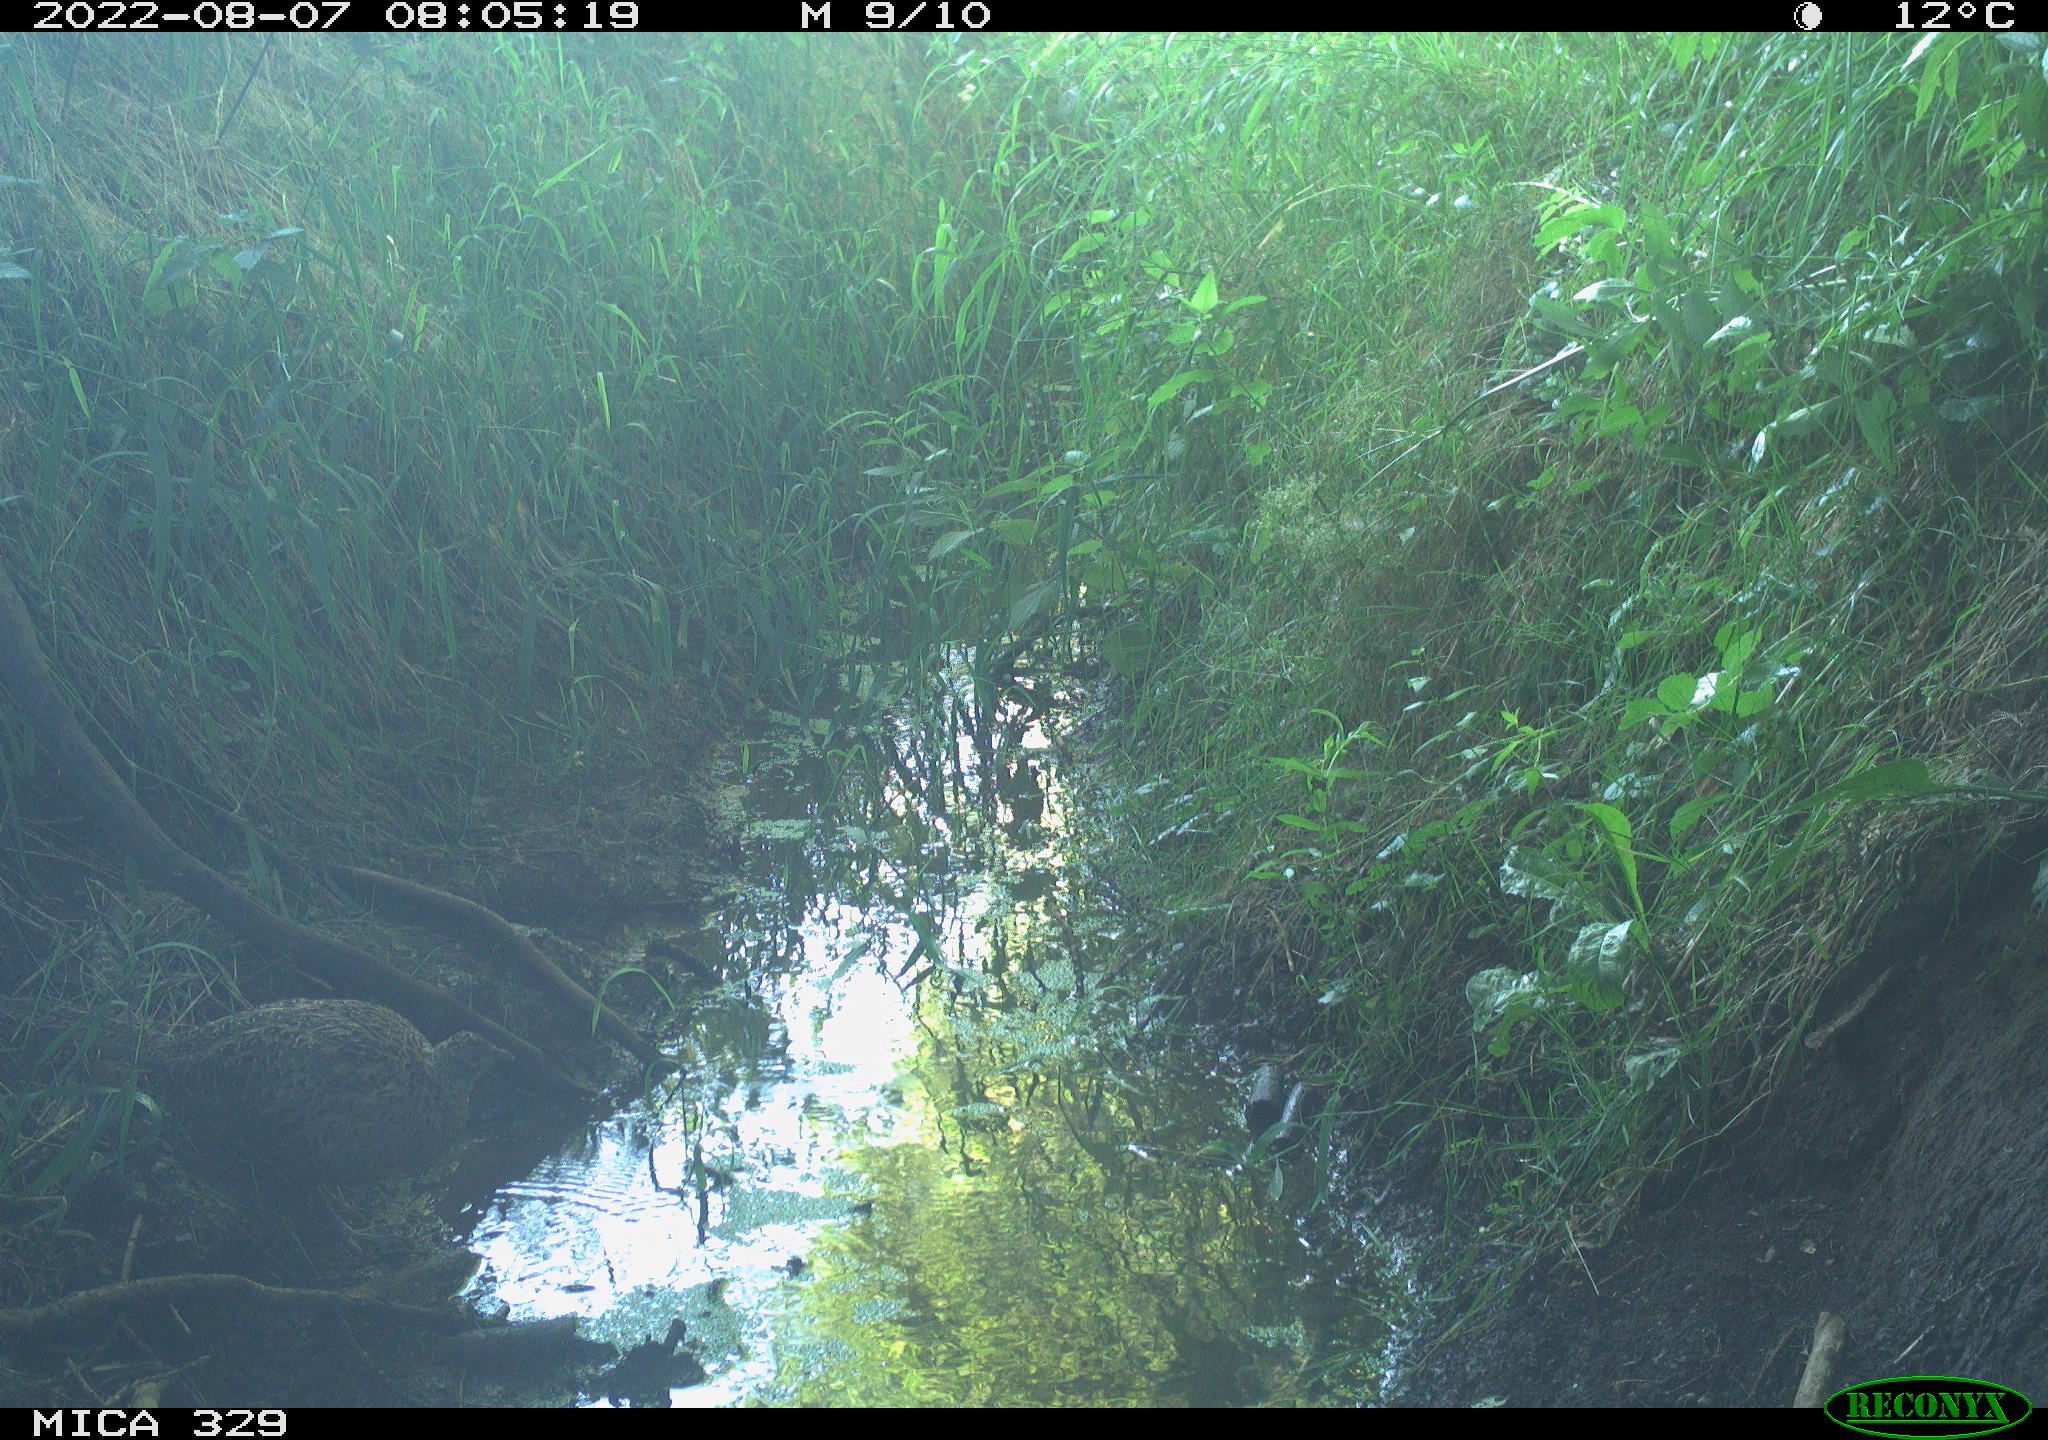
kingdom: Animalia
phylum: Chordata
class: Aves
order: Galliformes
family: Phasianidae
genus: Phasianus
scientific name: Phasianus colchicus
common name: Common pheasant
